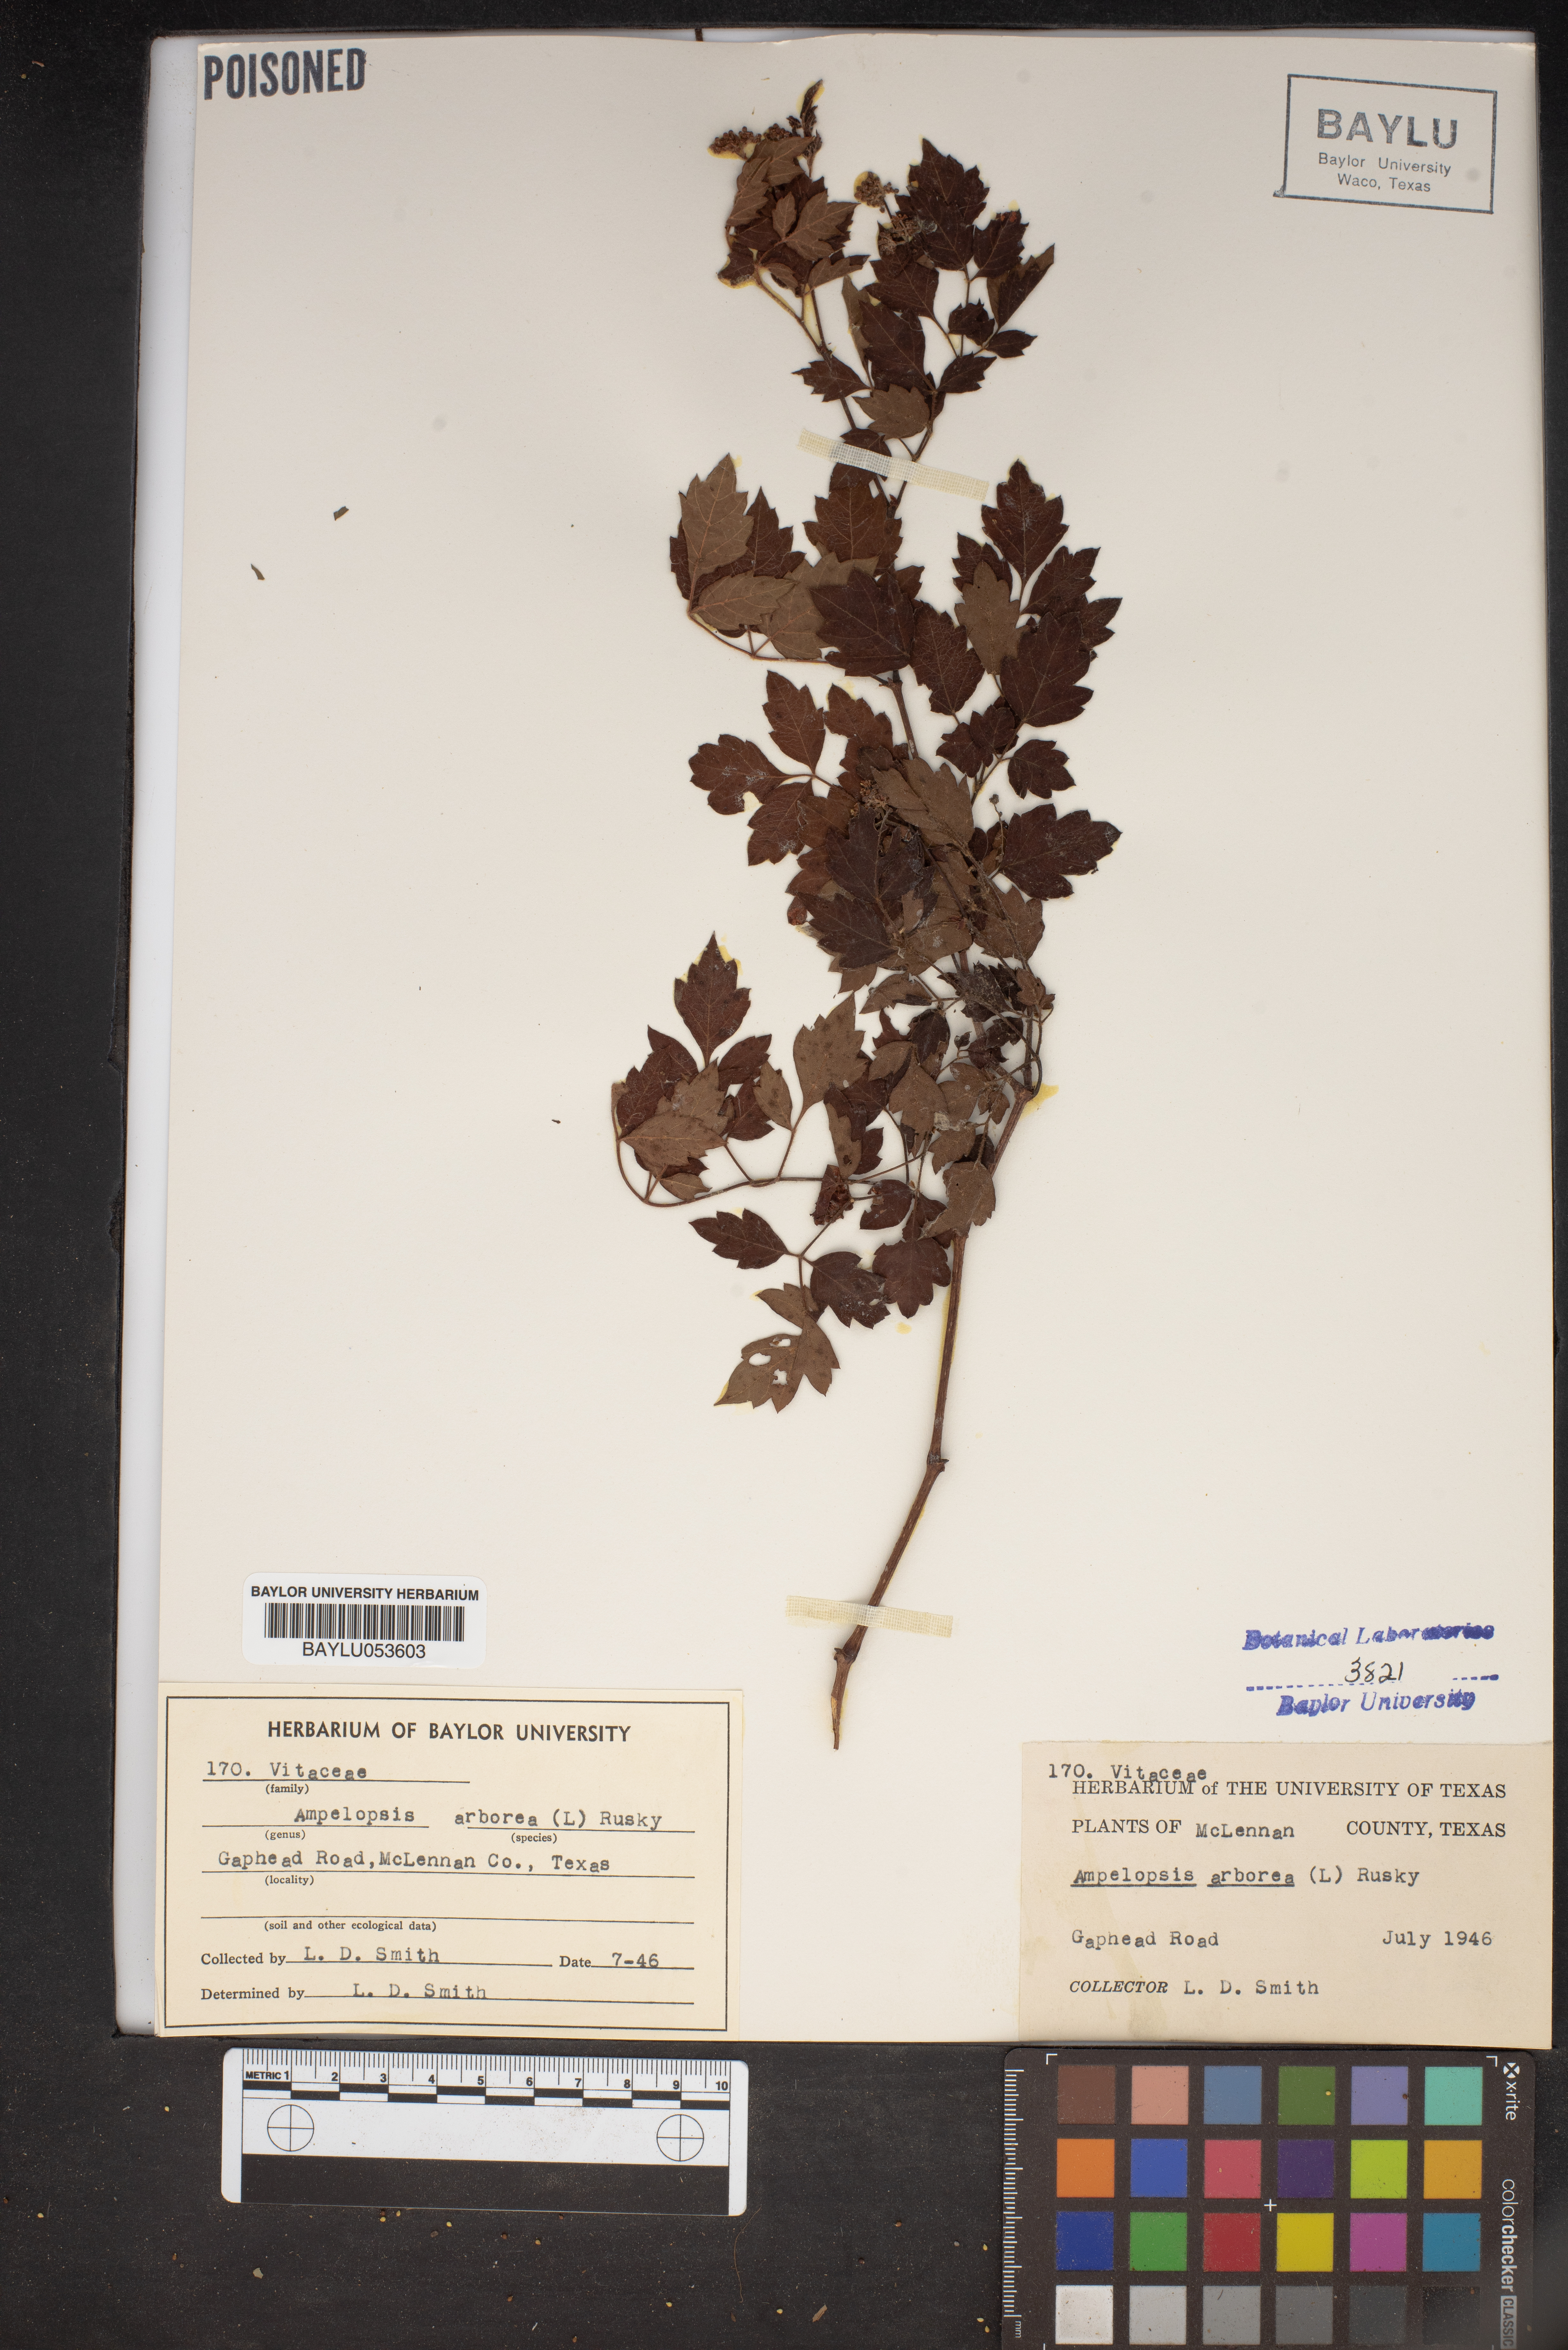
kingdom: Plantae
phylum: Tracheophyta
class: Magnoliopsida
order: Vitales
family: Vitaceae
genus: Nekemias
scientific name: Nekemias arborea
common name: Peppervine
